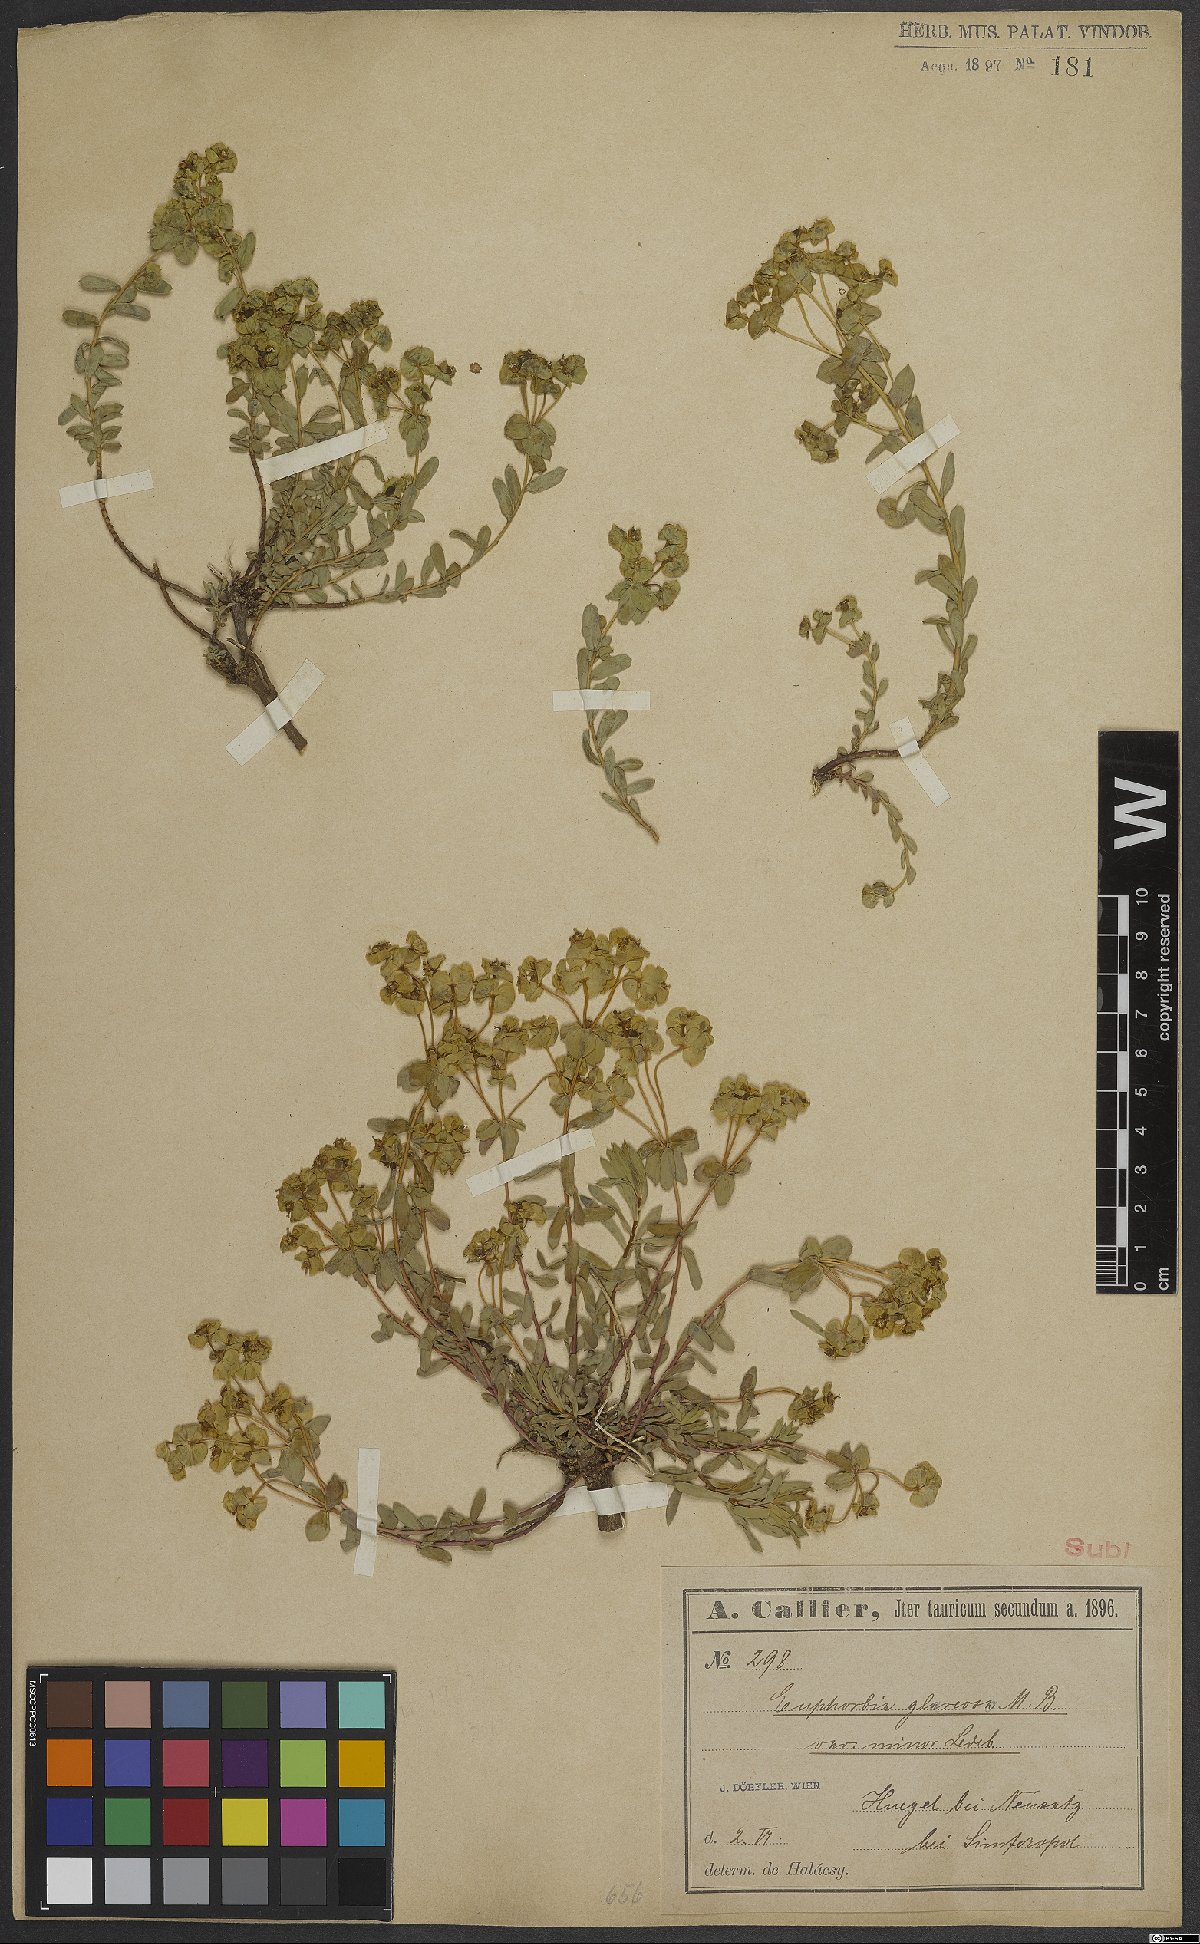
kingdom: Plantae
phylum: Tracheophyta
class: Magnoliopsida
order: Malpighiales
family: Euphorbiaceae
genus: Euphorbia
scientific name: Euphorbia glareosa
